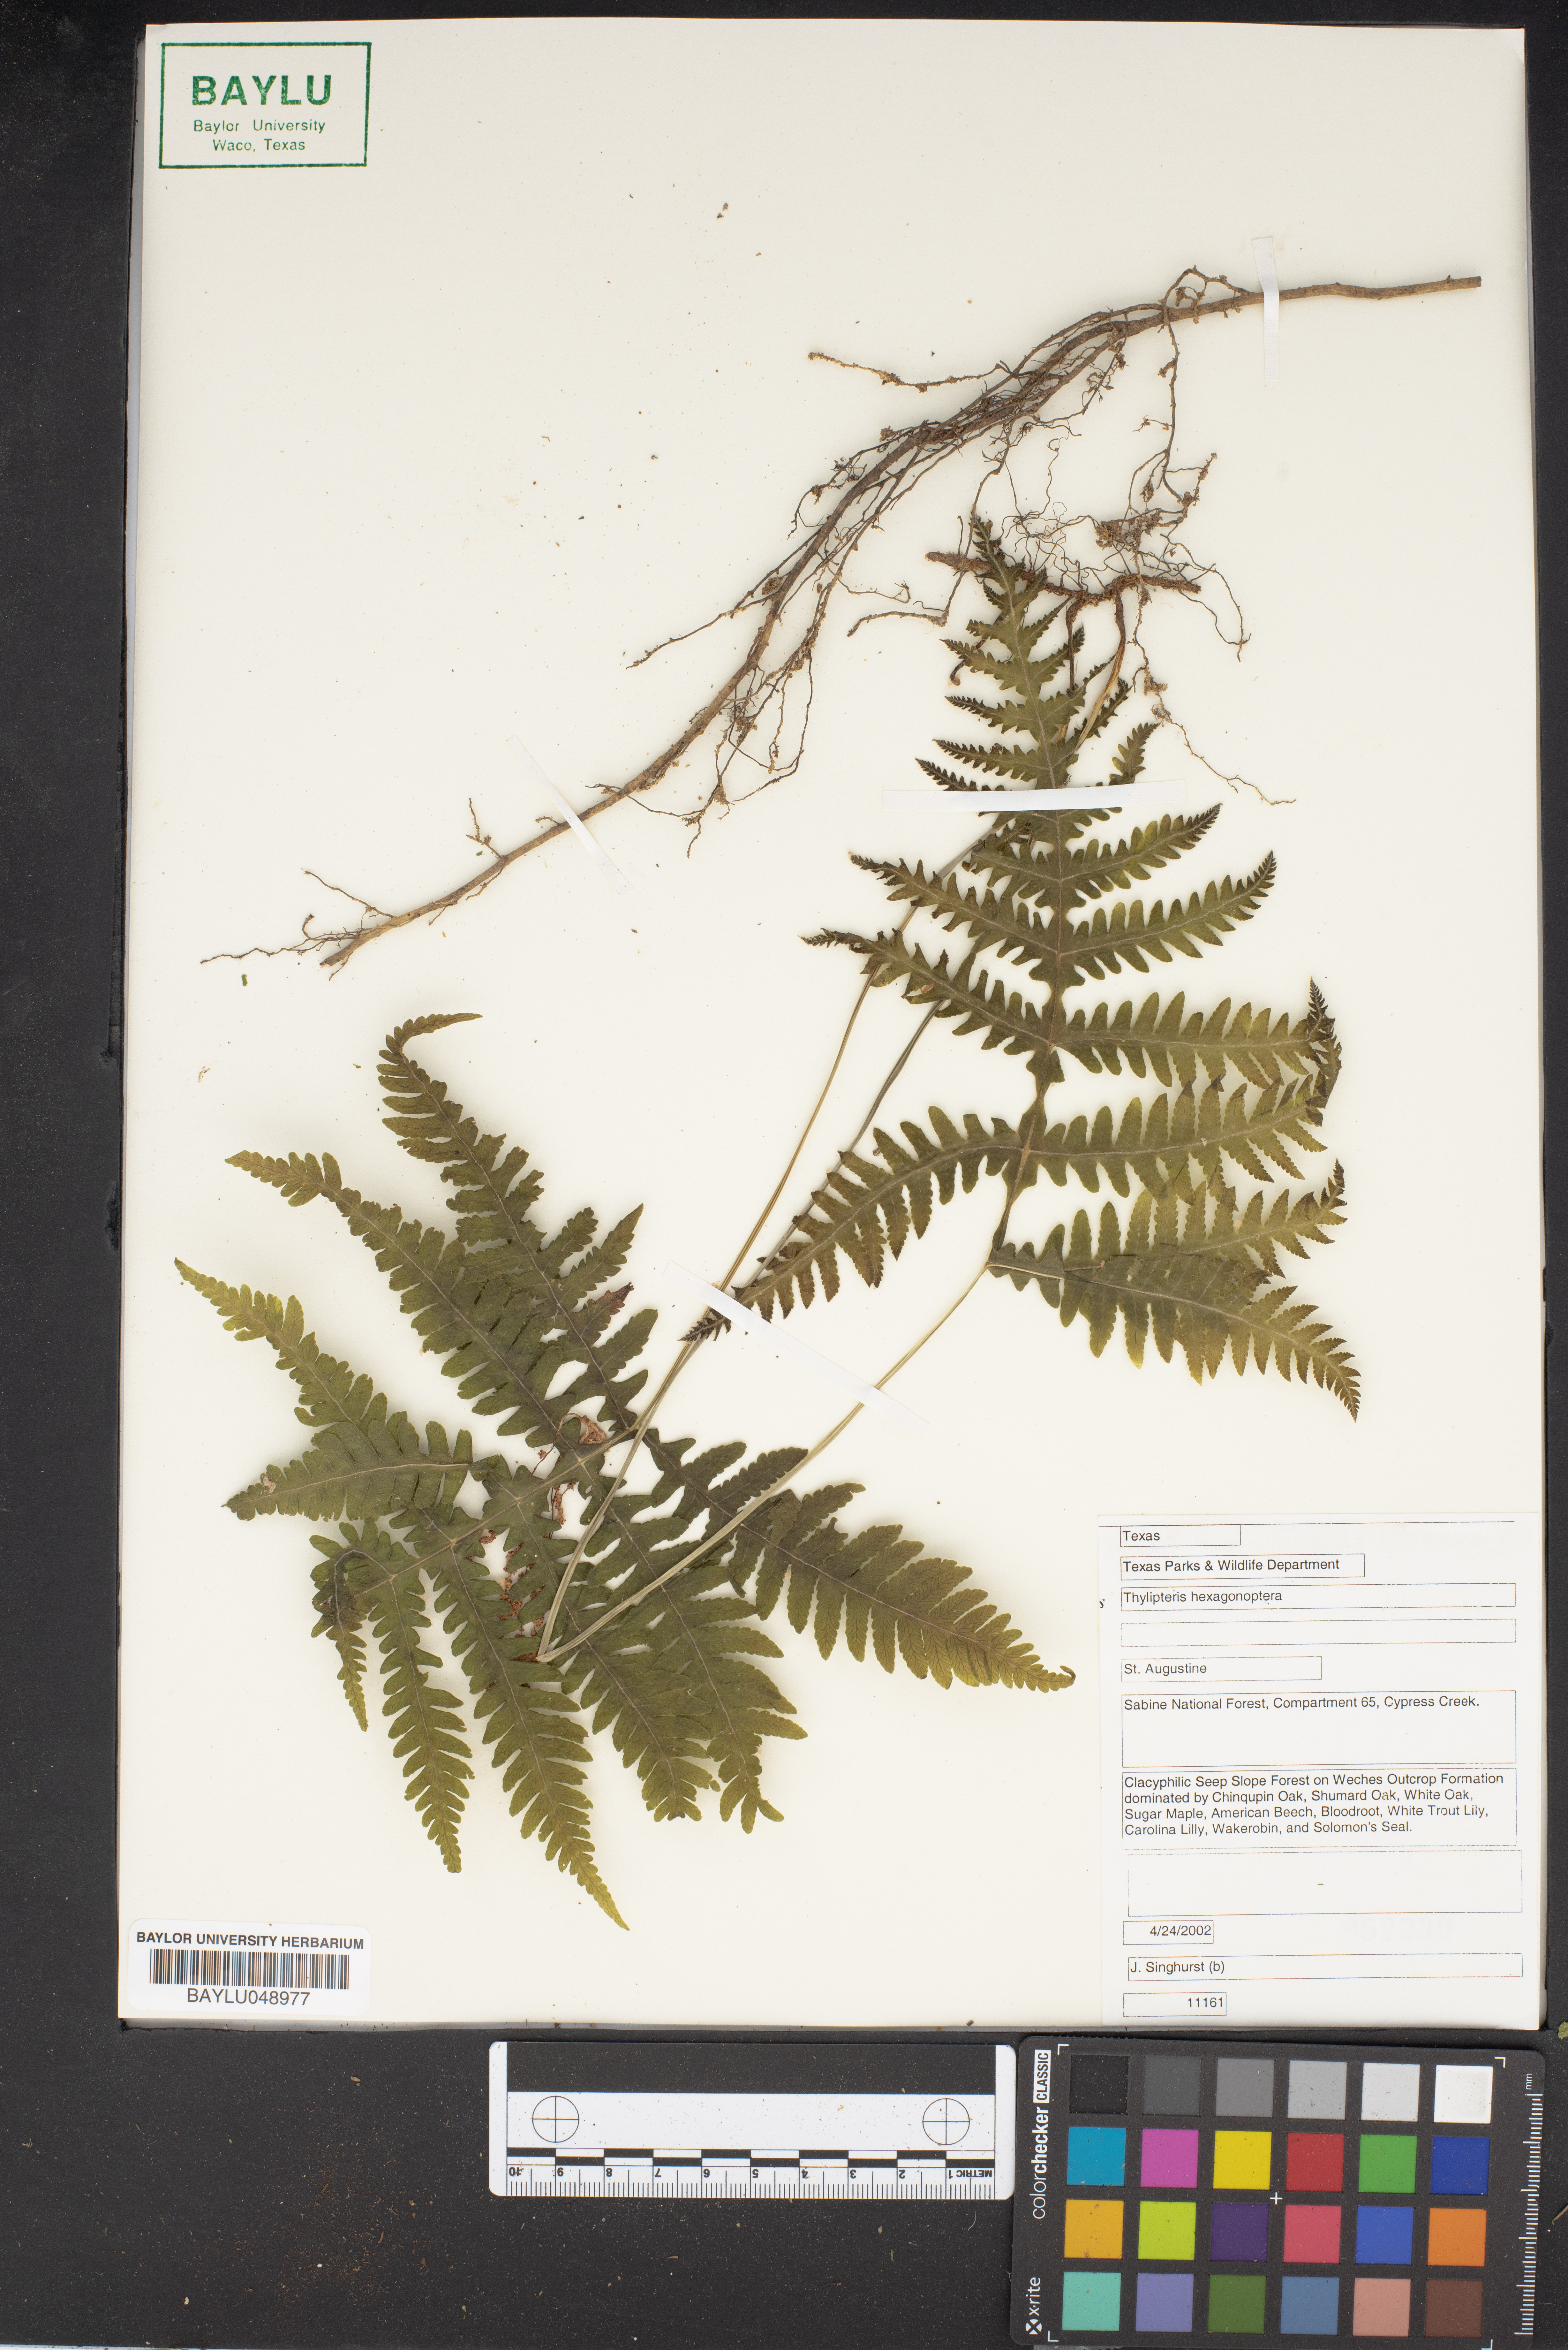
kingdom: Plantae
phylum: Tracheophyta
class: Polypodiopsida
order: Polypodiales
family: Thelypteridaceae
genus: Phegopteris
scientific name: Phegopteris hexagonoptera
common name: Broad beech fern
